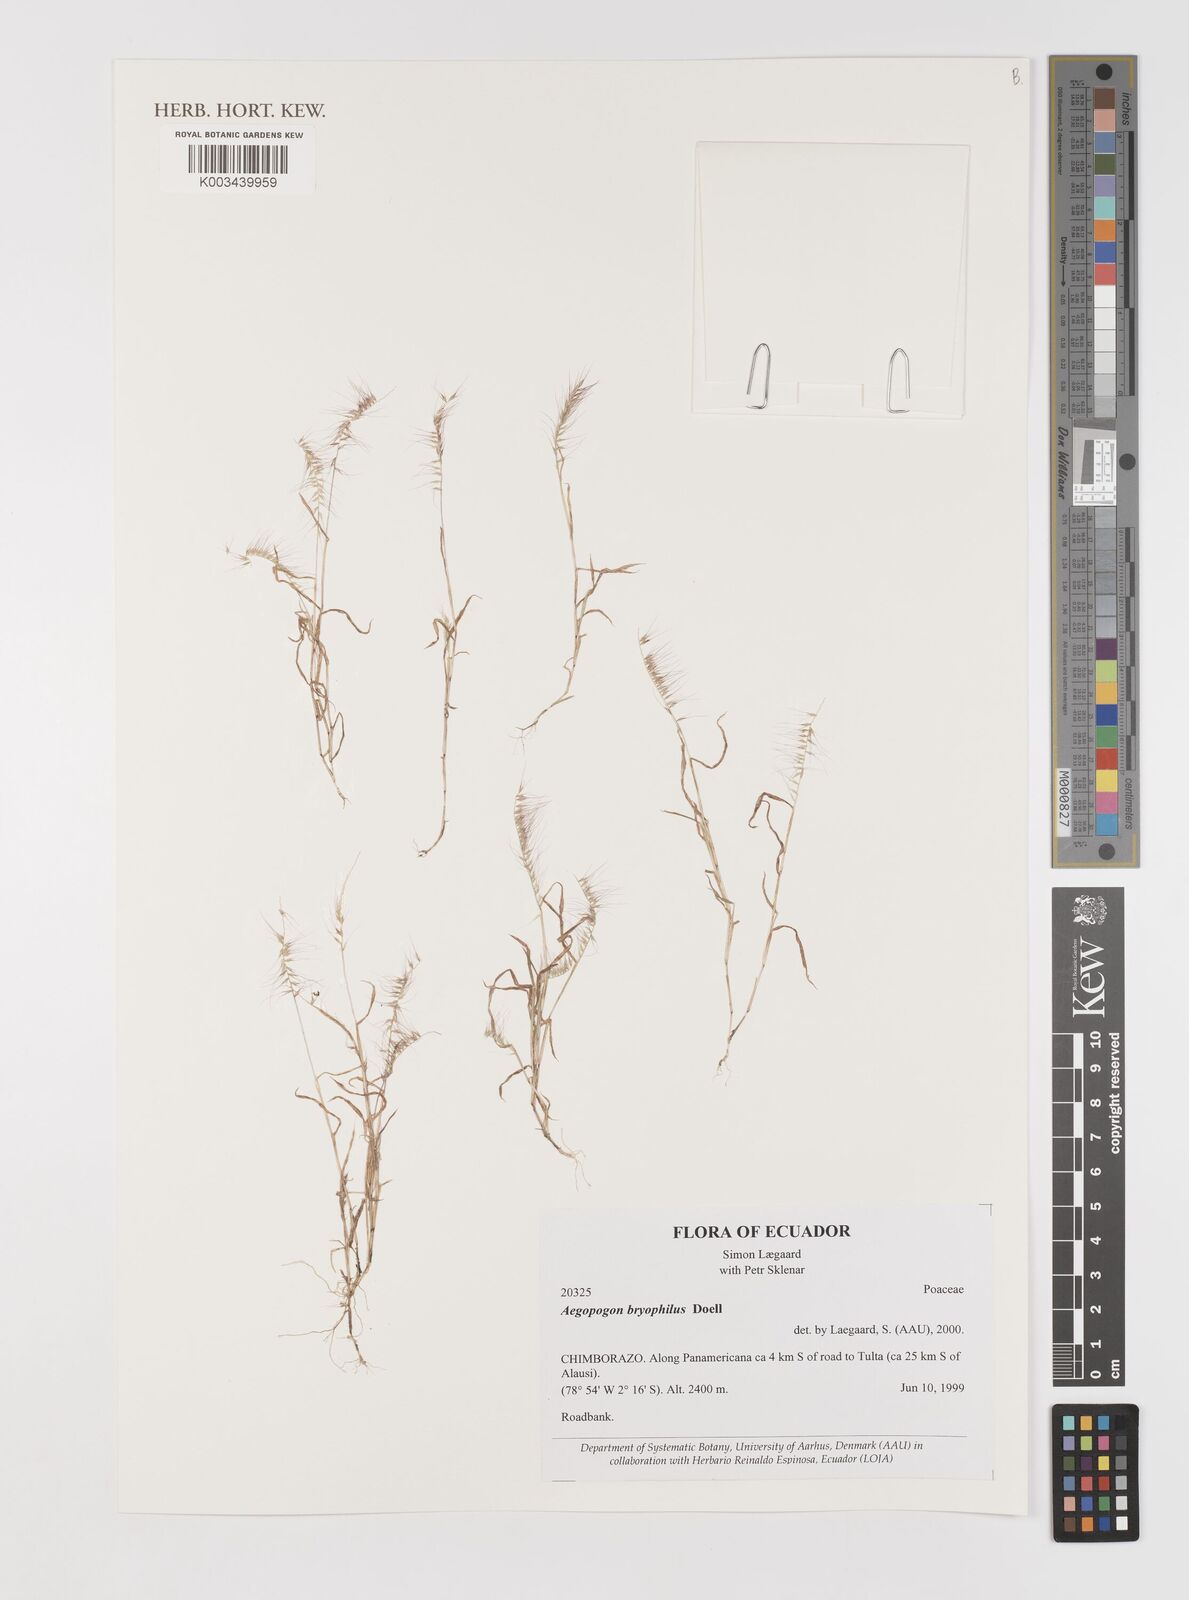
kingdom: Plantae
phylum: Tracheophyta
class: Liliopsida
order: Poales
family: Poaceae
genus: Muhlenbergia
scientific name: Muhlenbergia bryophilus
